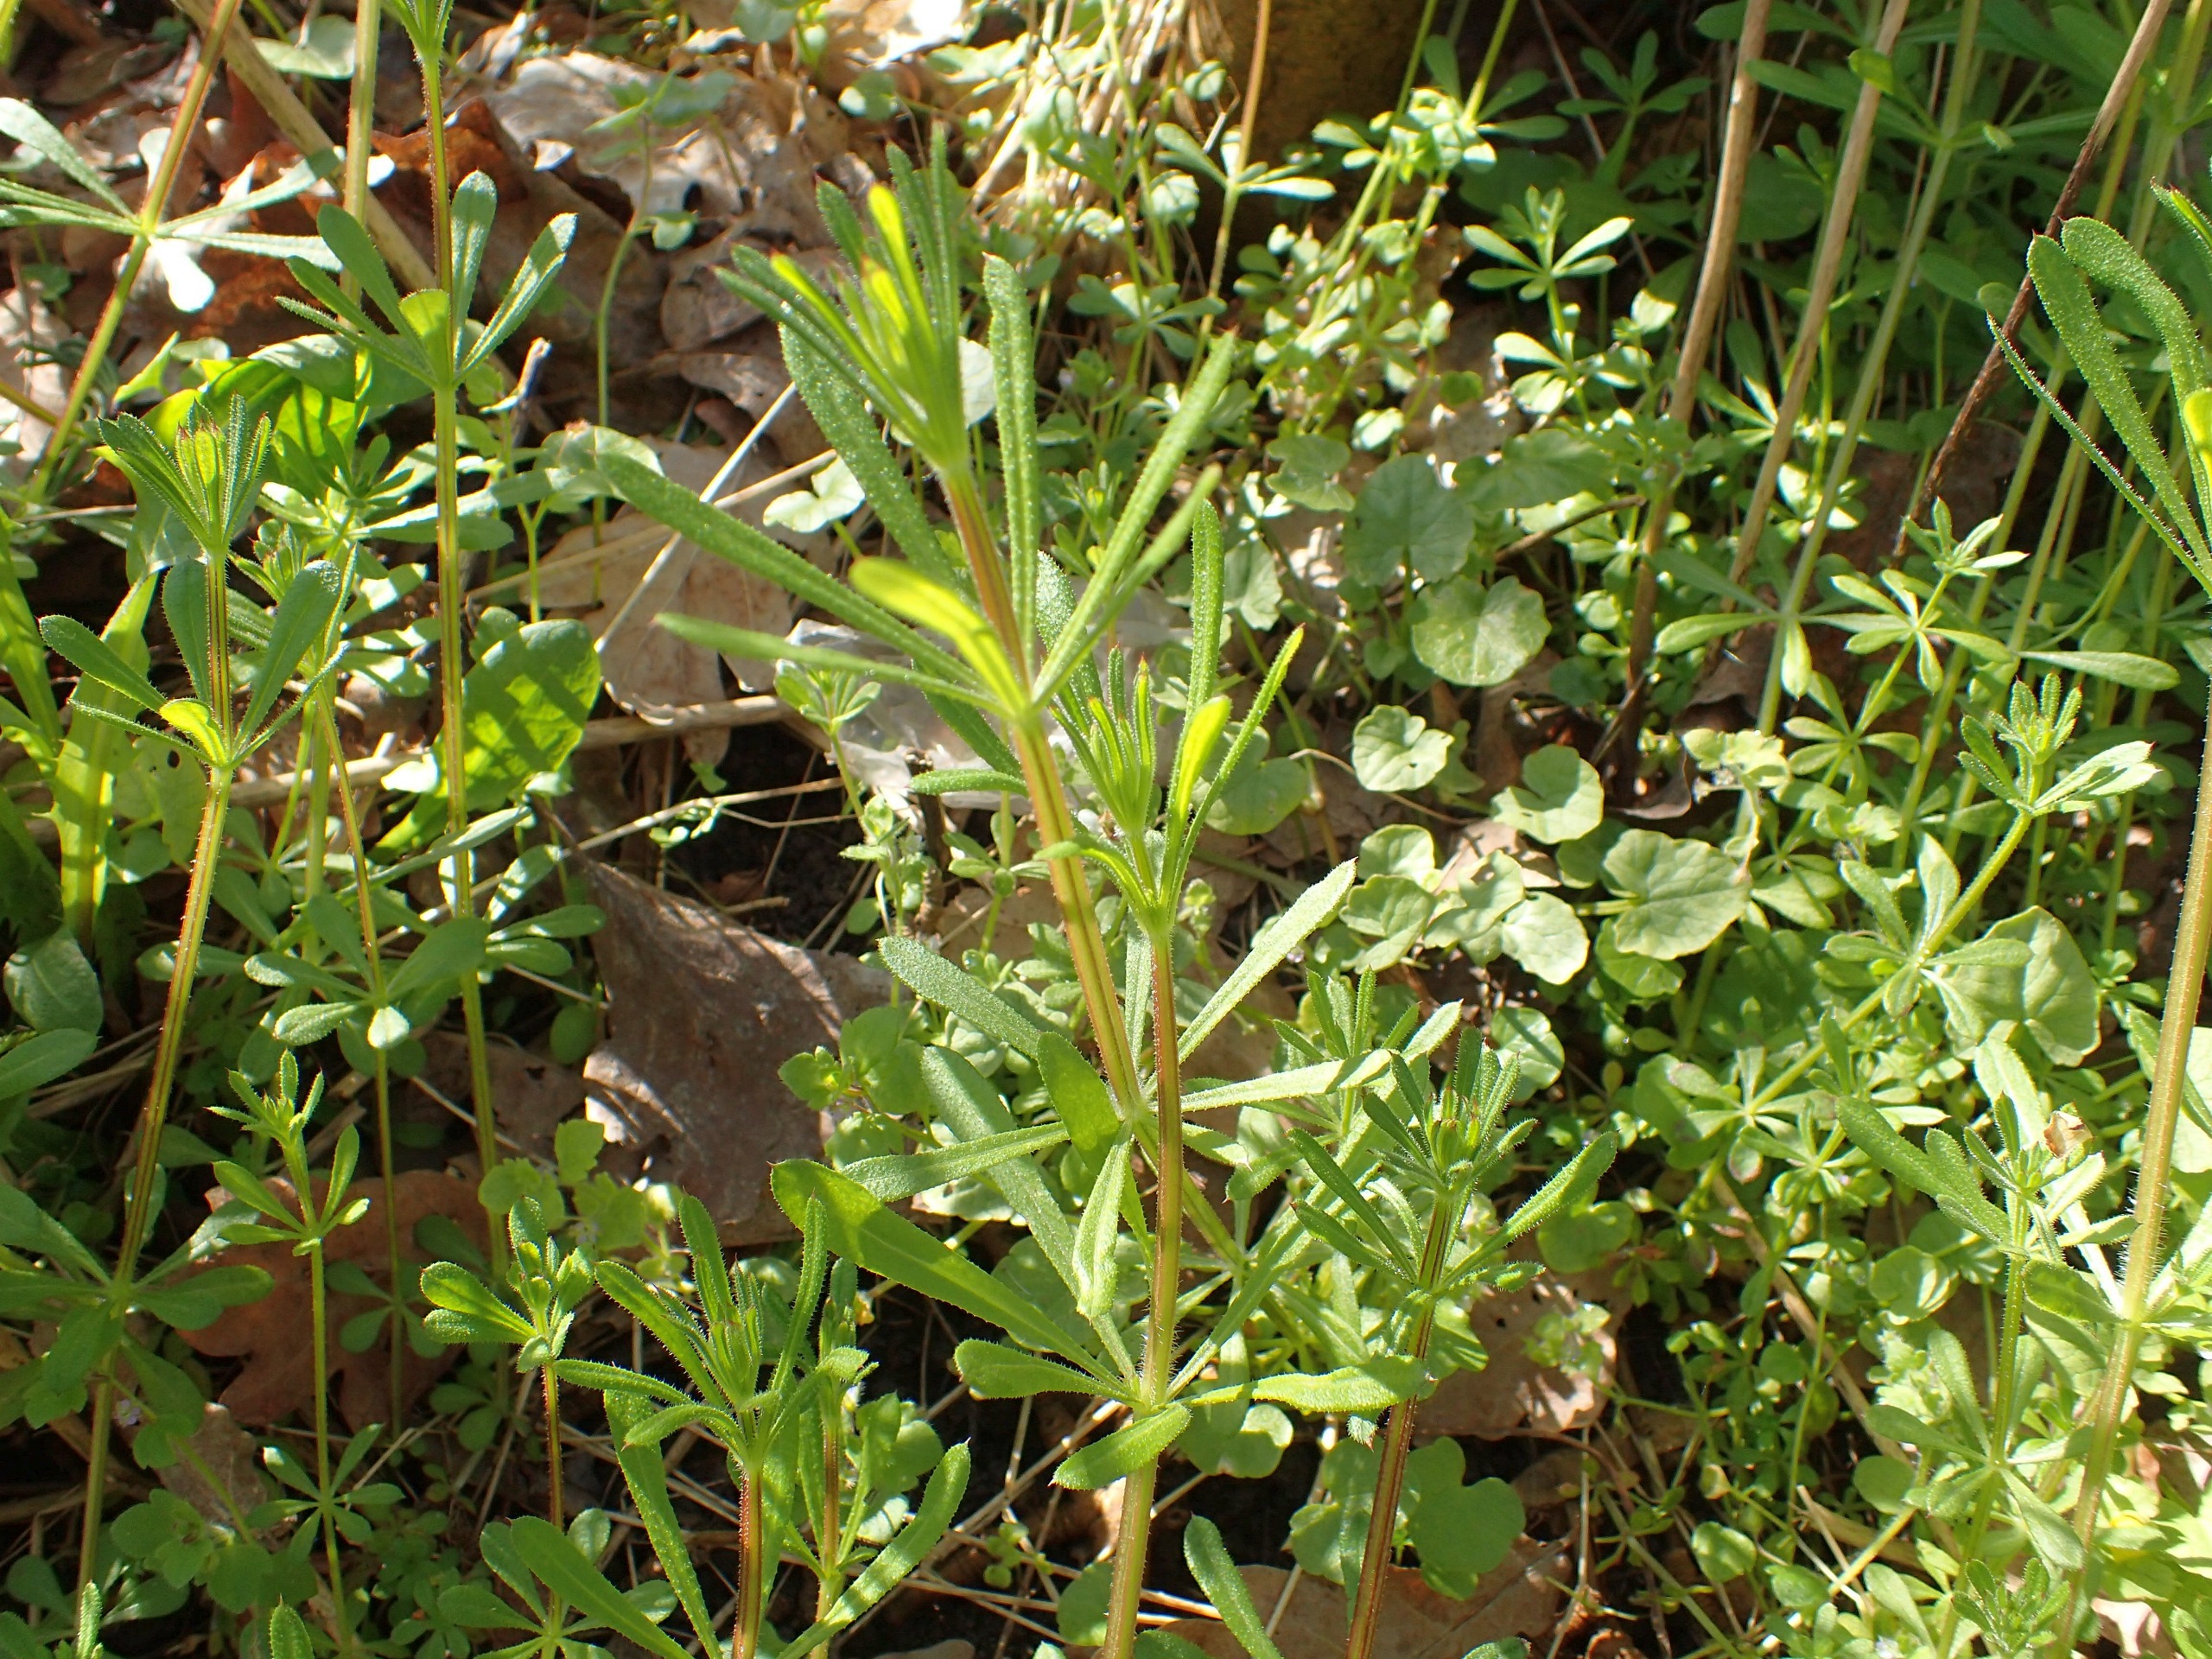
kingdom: Plantae
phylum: Tracheophyta
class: Magnoliopsida
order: Gentianales
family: Rubiaceae
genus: Galium
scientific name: Galium aparine
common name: Burre-snerre
